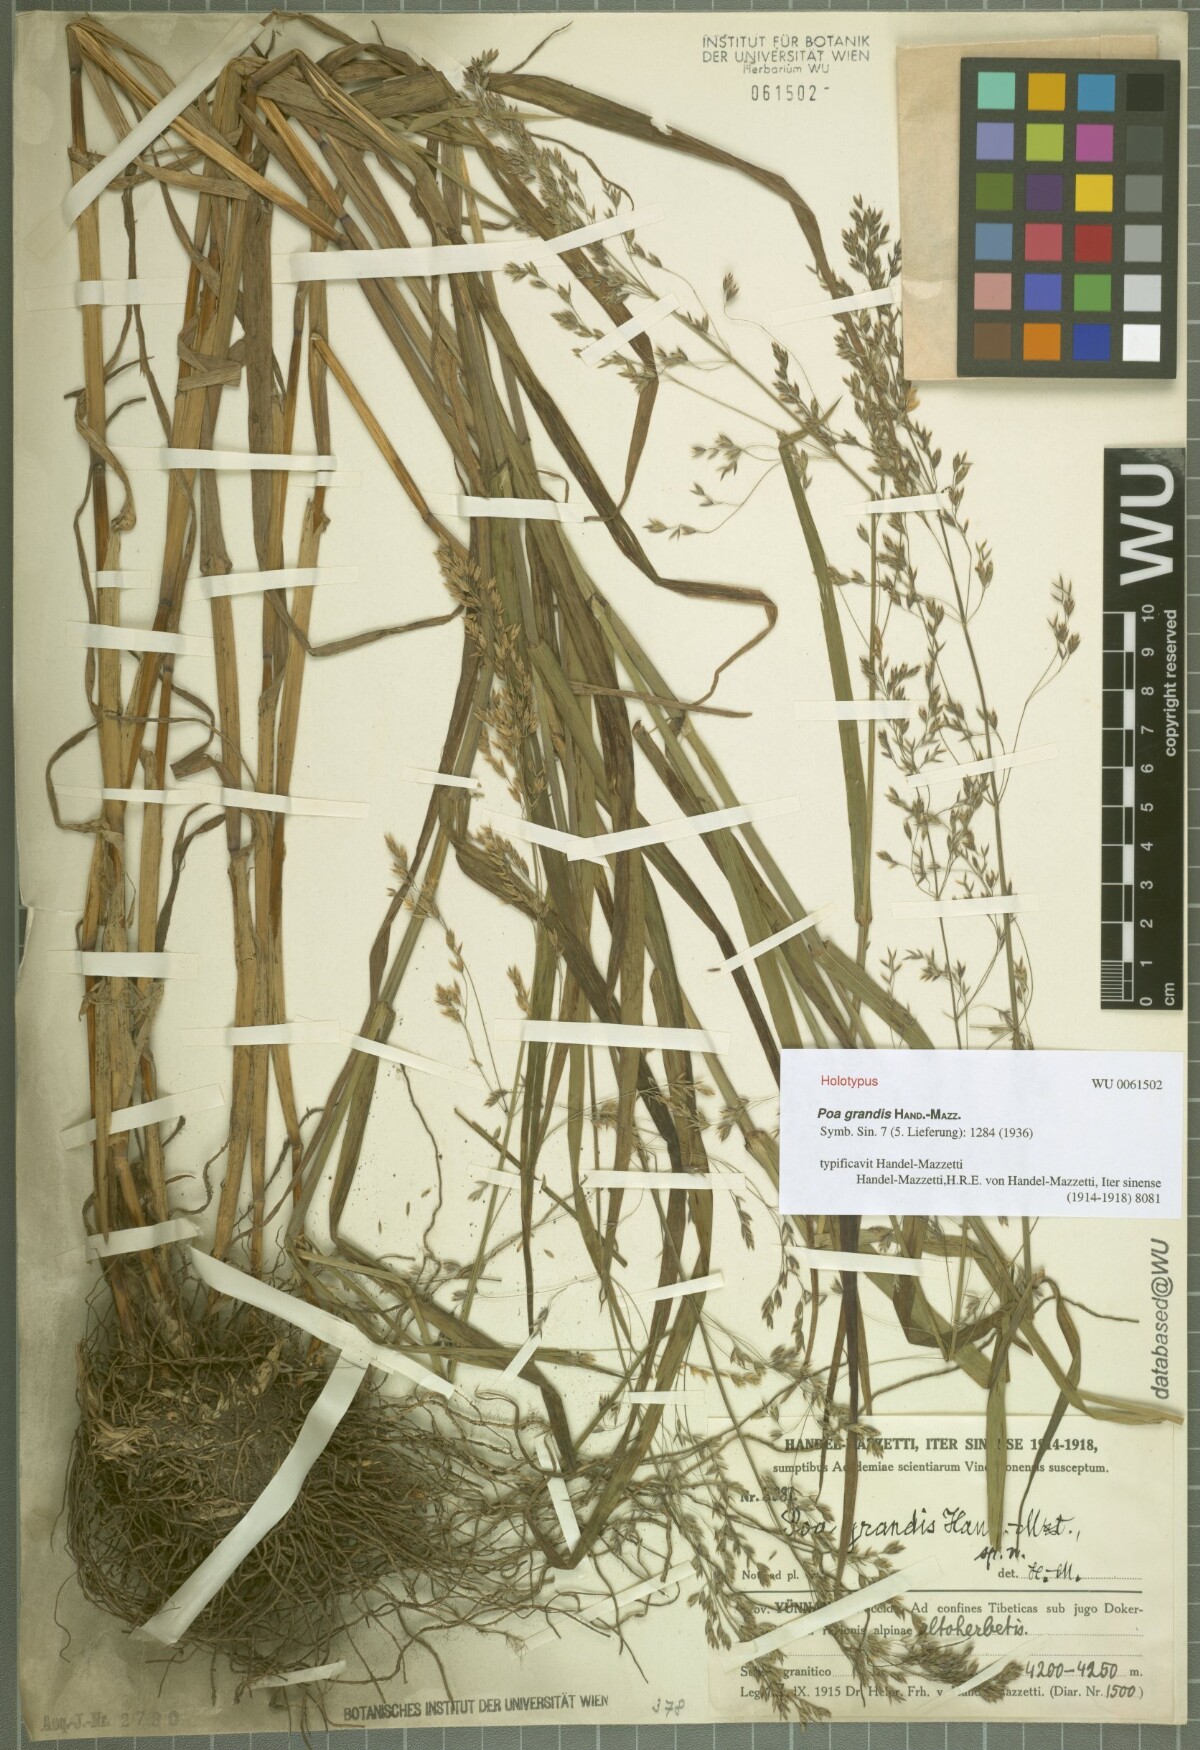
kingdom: Plantae
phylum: Tracheophyta
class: Liliopsida
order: Poales
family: Poaceae
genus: Poa
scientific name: Poa grandis
